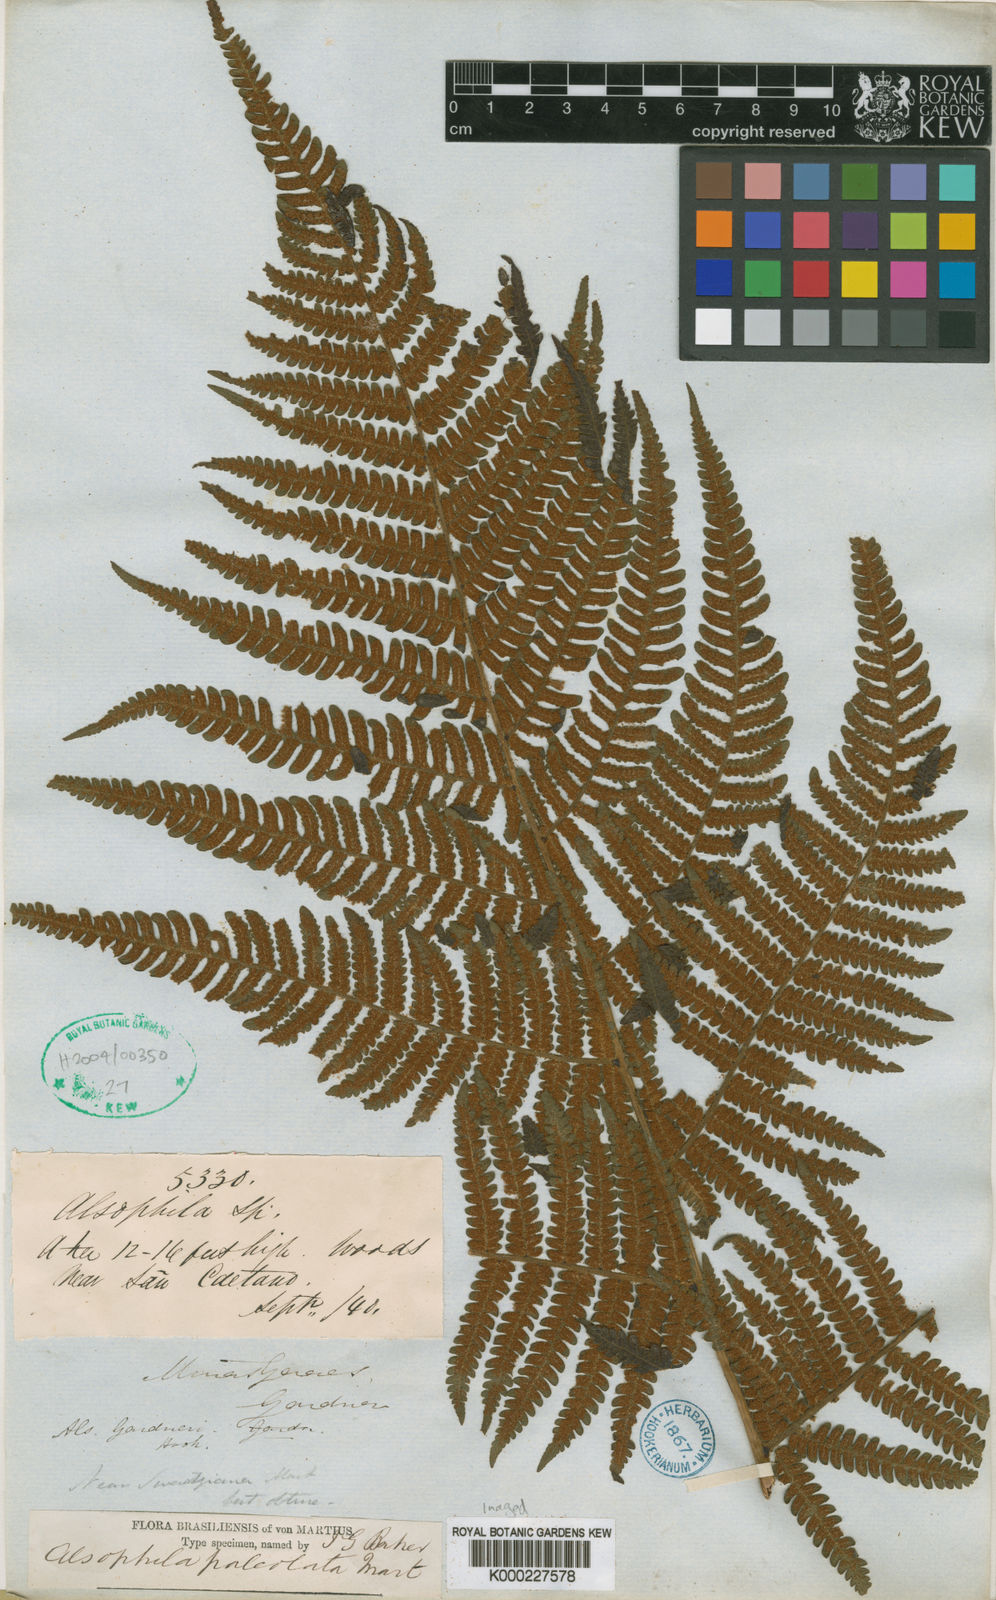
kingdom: Plantae
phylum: Tracheophyta
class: Polypodiopsida
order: Cyatheales
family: Cyatheaceae
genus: Sphaeropteris
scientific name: Sphaeropteris gardneri
